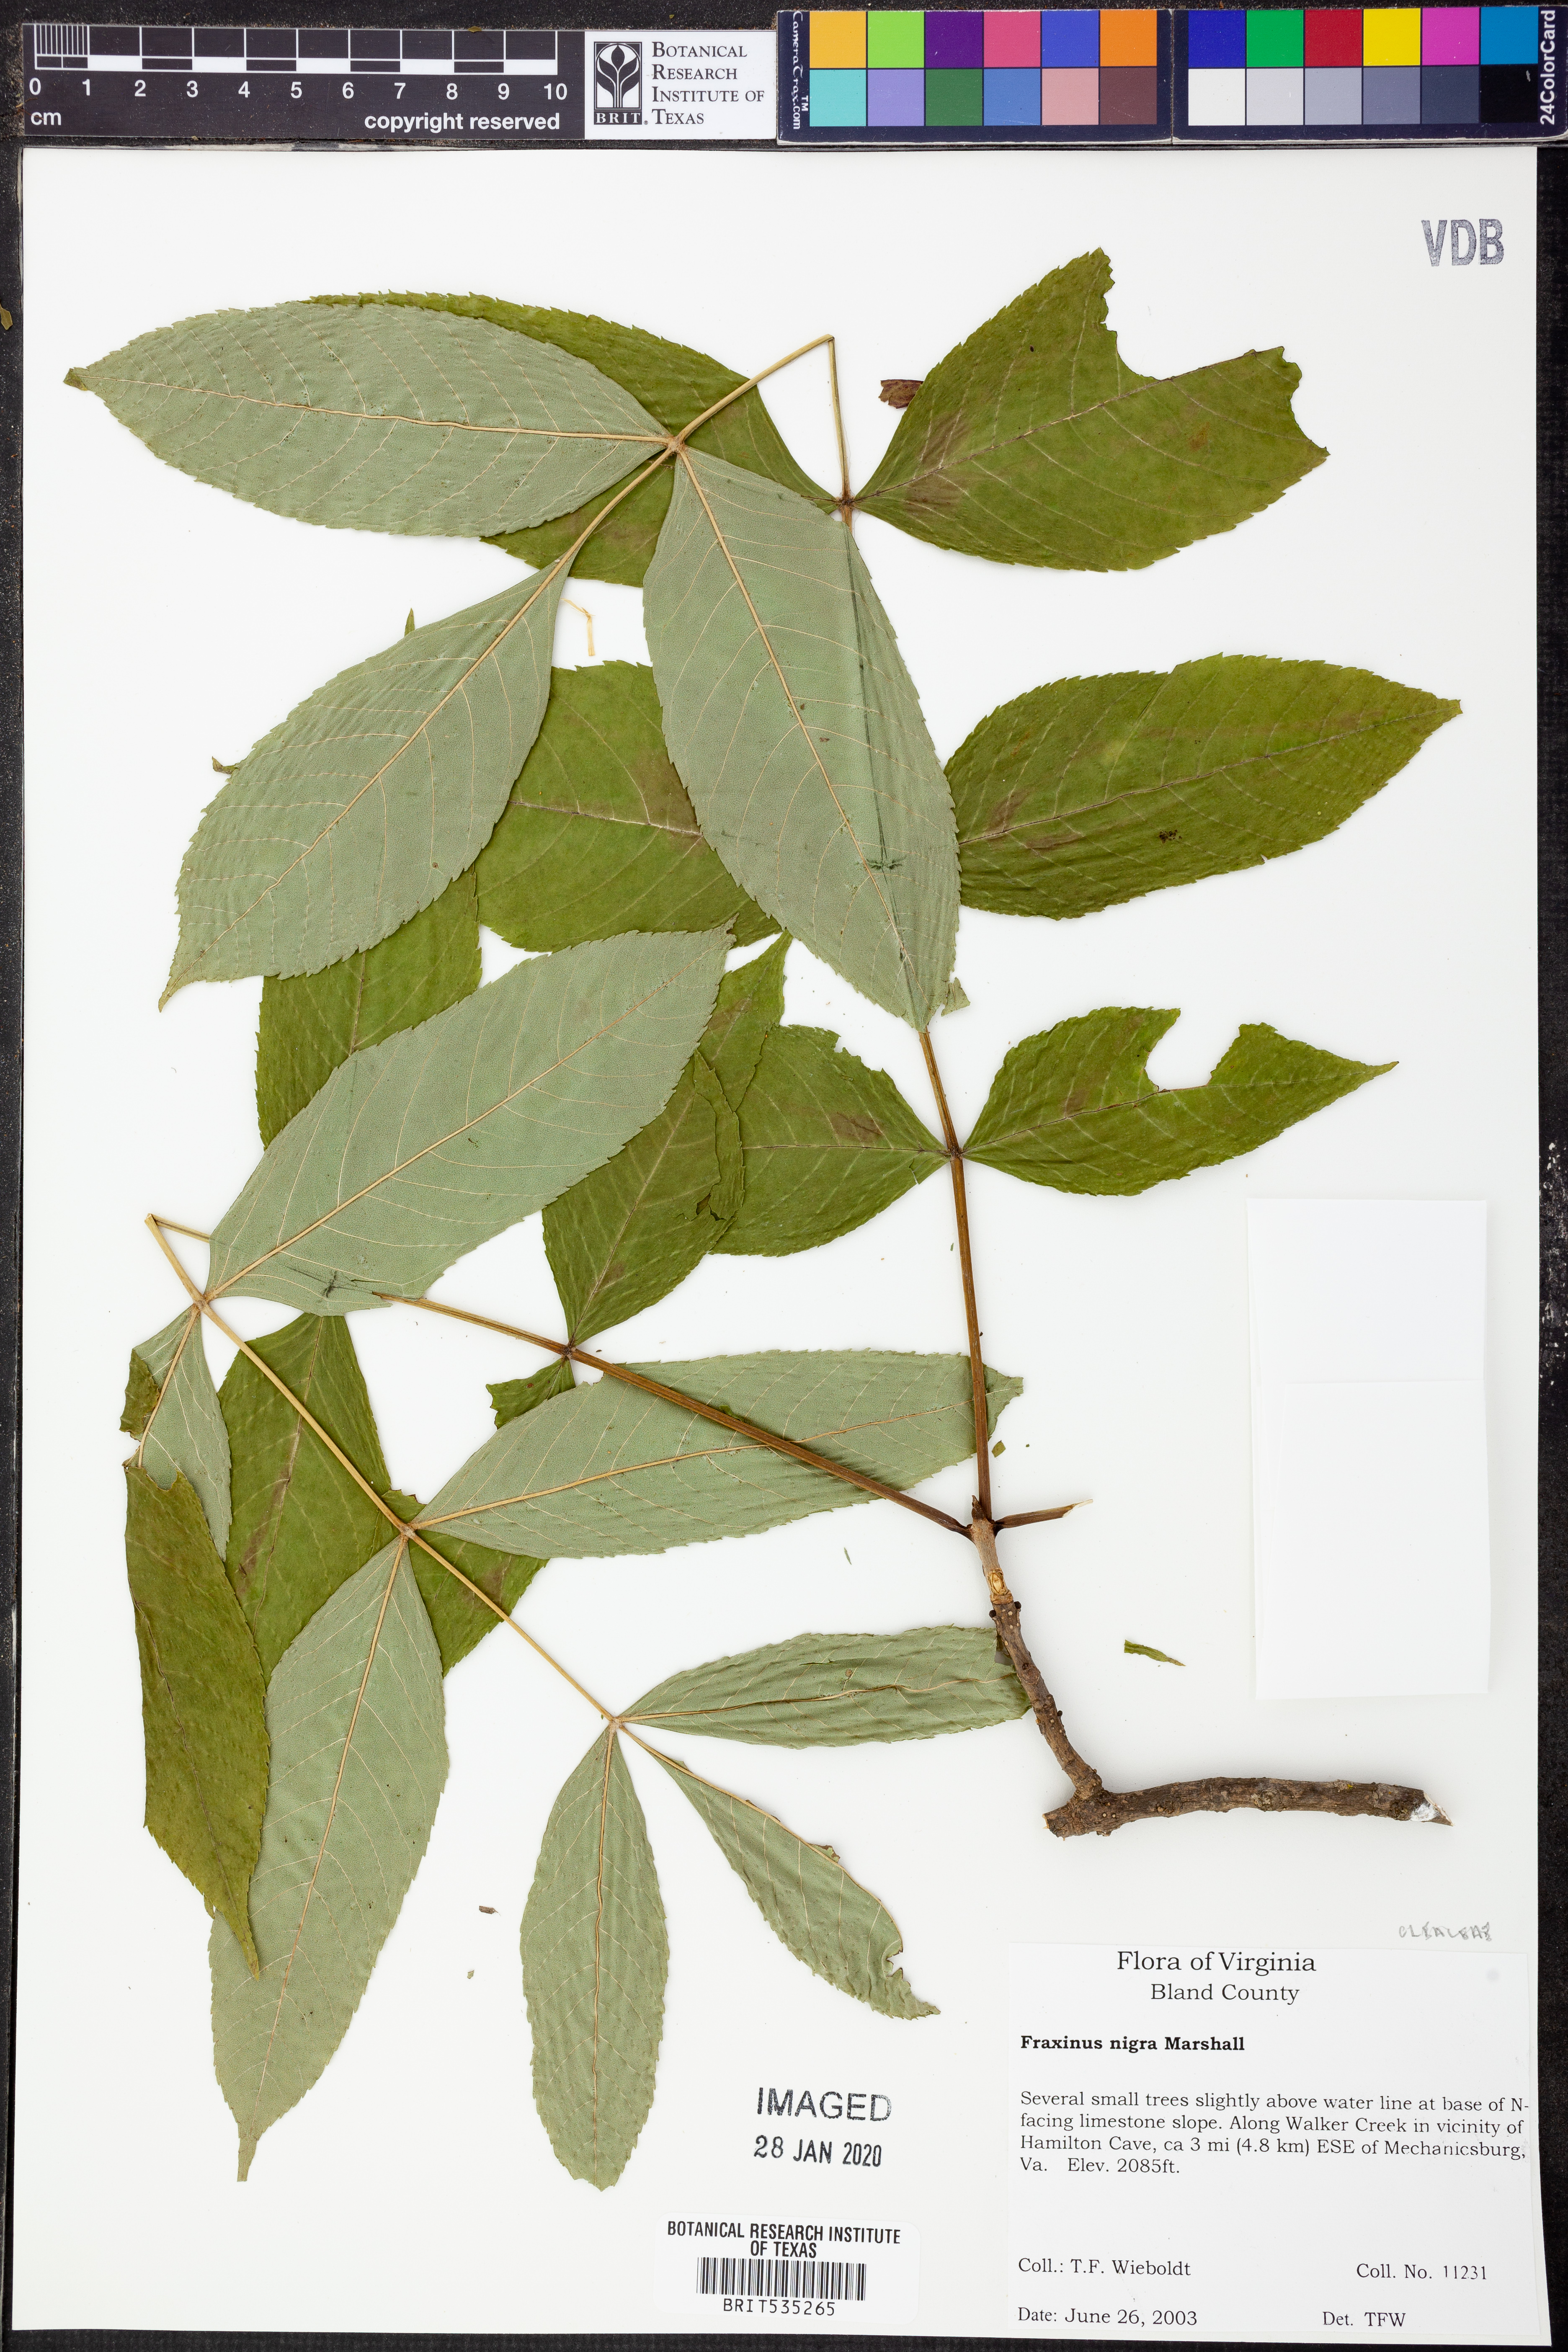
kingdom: Plantae
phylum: Tracheophyta
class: Magnoliopsida
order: Lamiales
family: Oleaceae
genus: Fraxinus
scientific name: Fraxinus nigra
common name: Black ash
